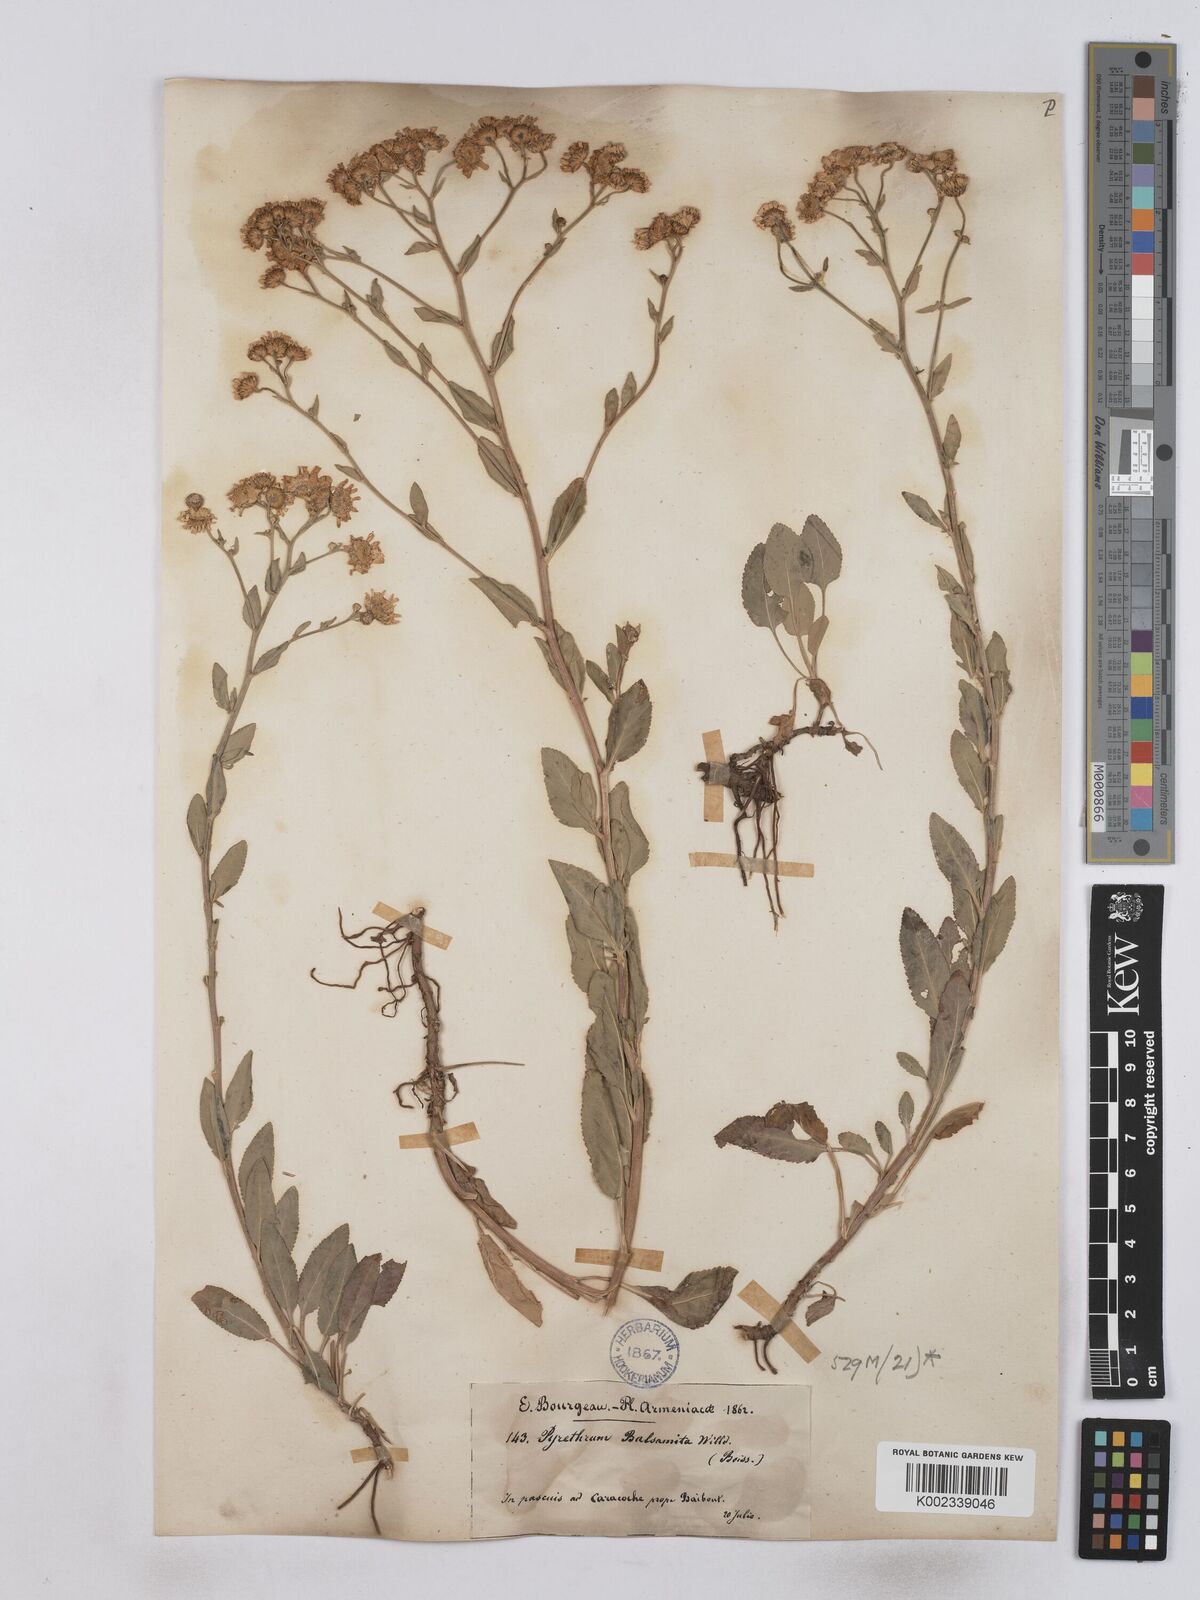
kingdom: Plantae
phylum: Tracheophyta
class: Magnoliopsida
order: Asterales
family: Asteraceae
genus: Tanacetum
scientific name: Tanacetum balsamita
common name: Costmary
